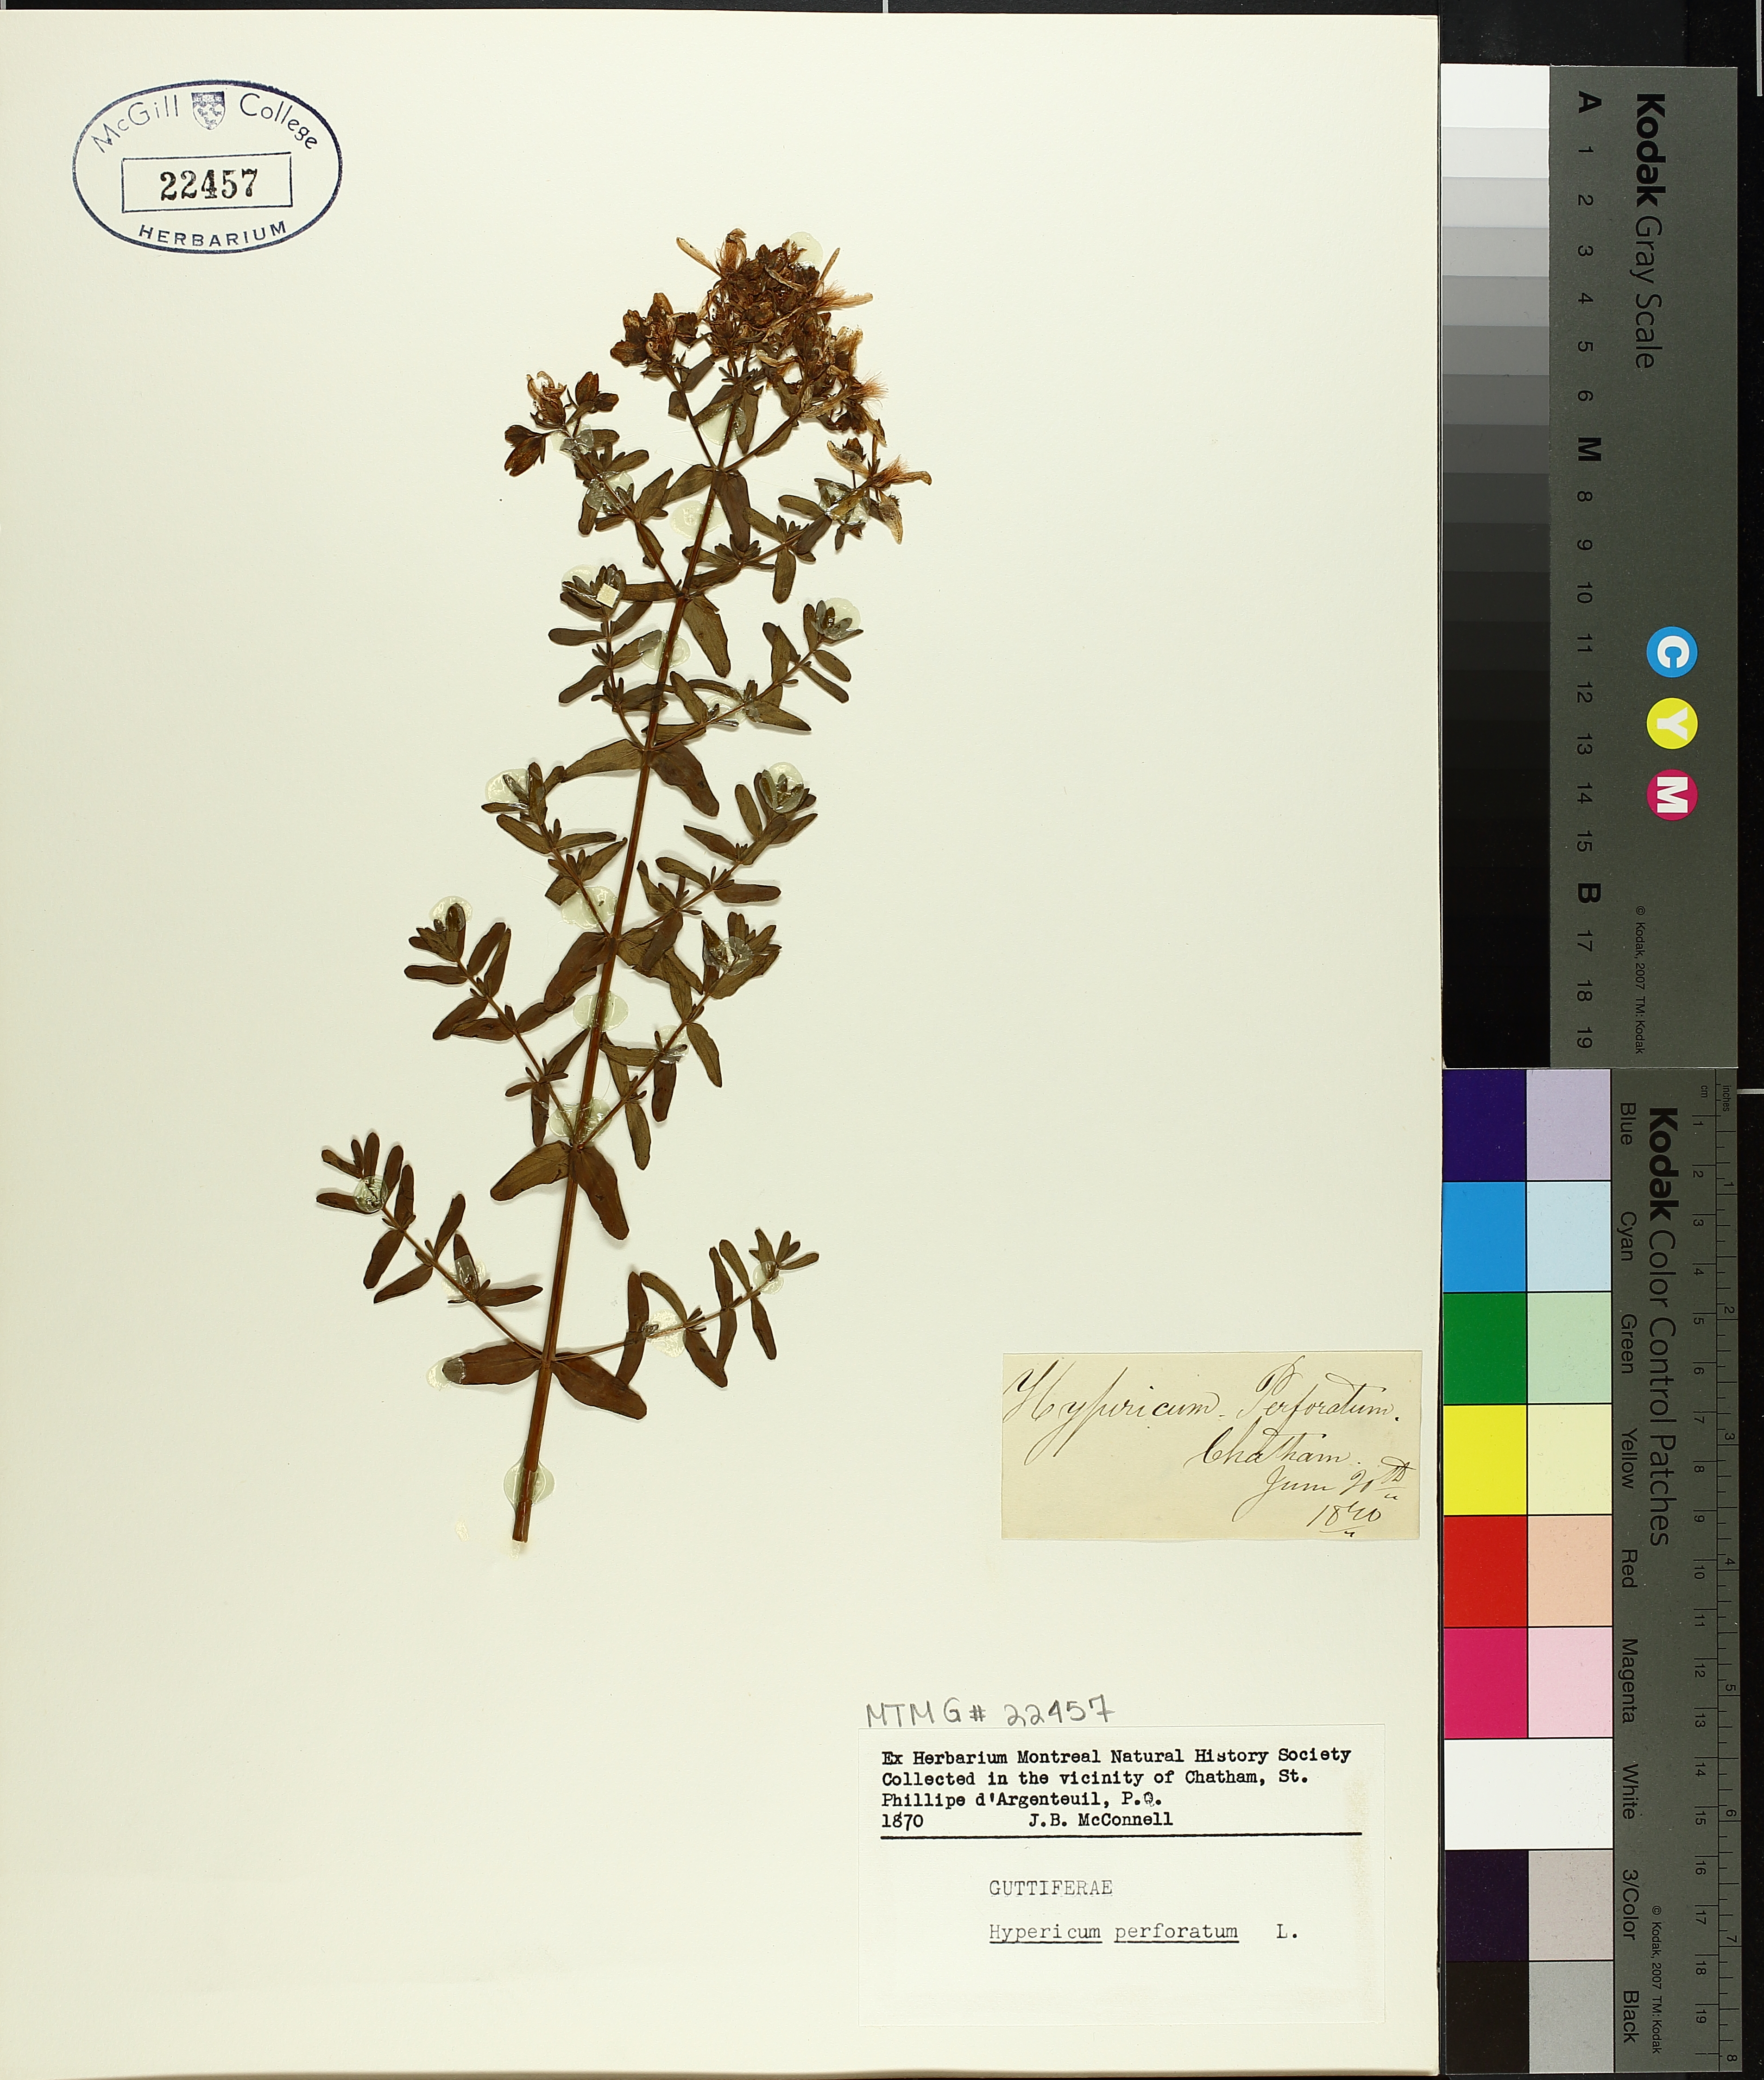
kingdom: Plantae
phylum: Tracheophyta
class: Magnoliopsida
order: Malpighiales
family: Hypericaceae
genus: Hypericum
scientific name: Hypericum perforatum
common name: Common st. johnswort
